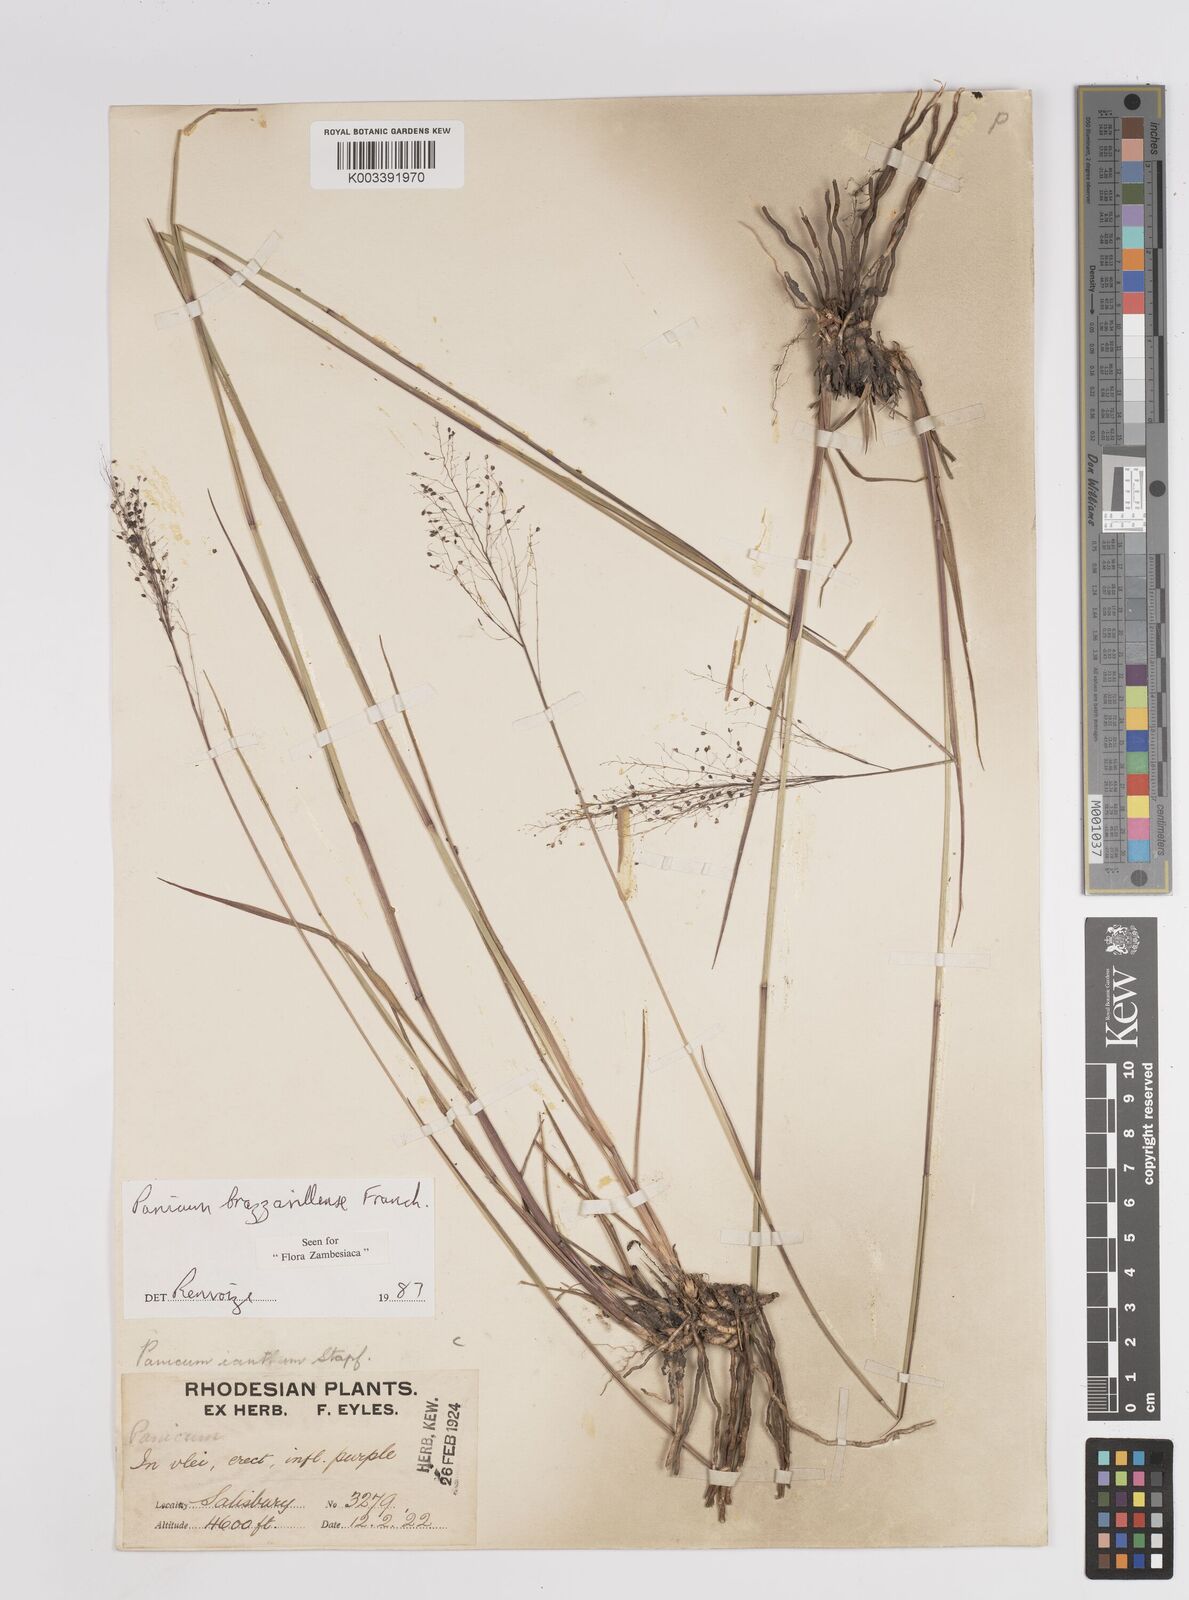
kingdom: Plantae
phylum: Tracheophyta
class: Liliopsida
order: Poales
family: Poaceae
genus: Trichanthecium
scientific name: Trichanthecium brazzavillense
